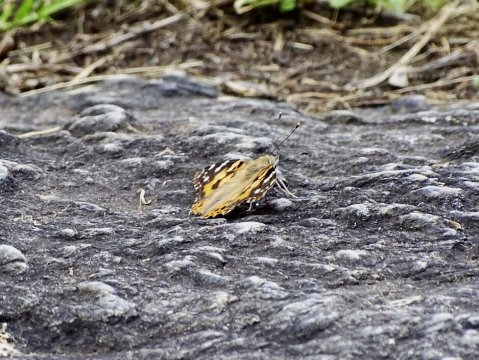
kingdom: Animalia
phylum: Arthropoda
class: Insecta
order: Lepidoptera
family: Nymphalidae
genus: Vanessa
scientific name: Vanessa cardui
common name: Painted Lady
